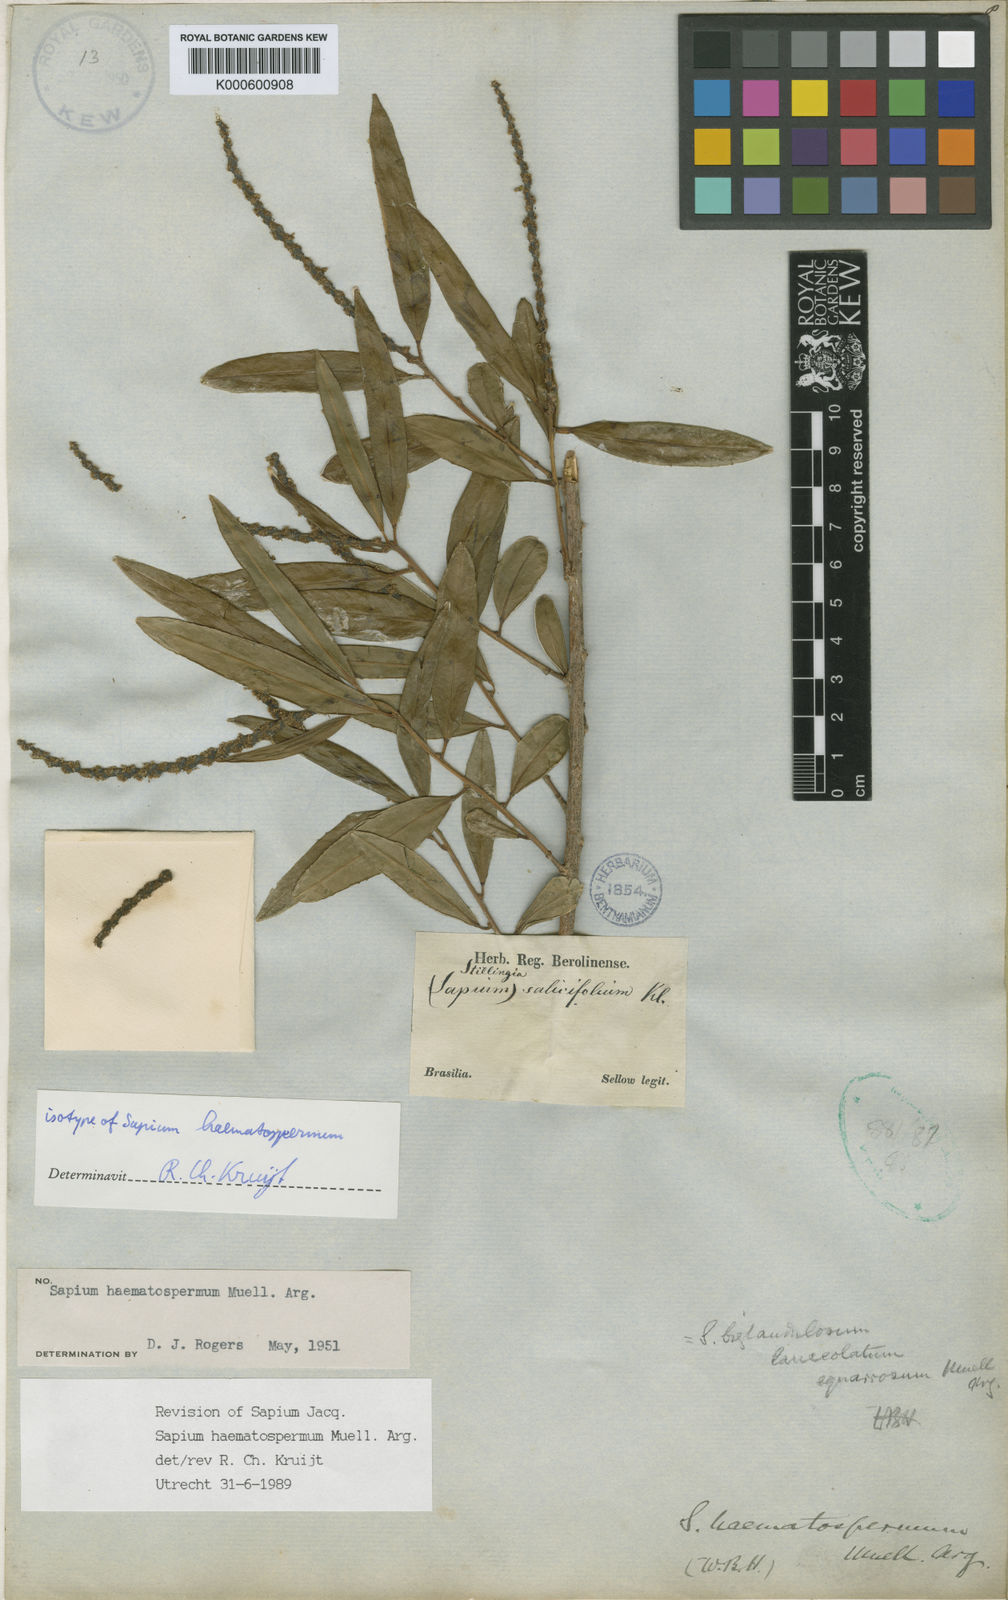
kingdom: Plantae
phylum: Tracheophyta
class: Magnoliopsida
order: Malpighiales
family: Euphorbiaceae
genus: Sapium
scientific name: Sapium
